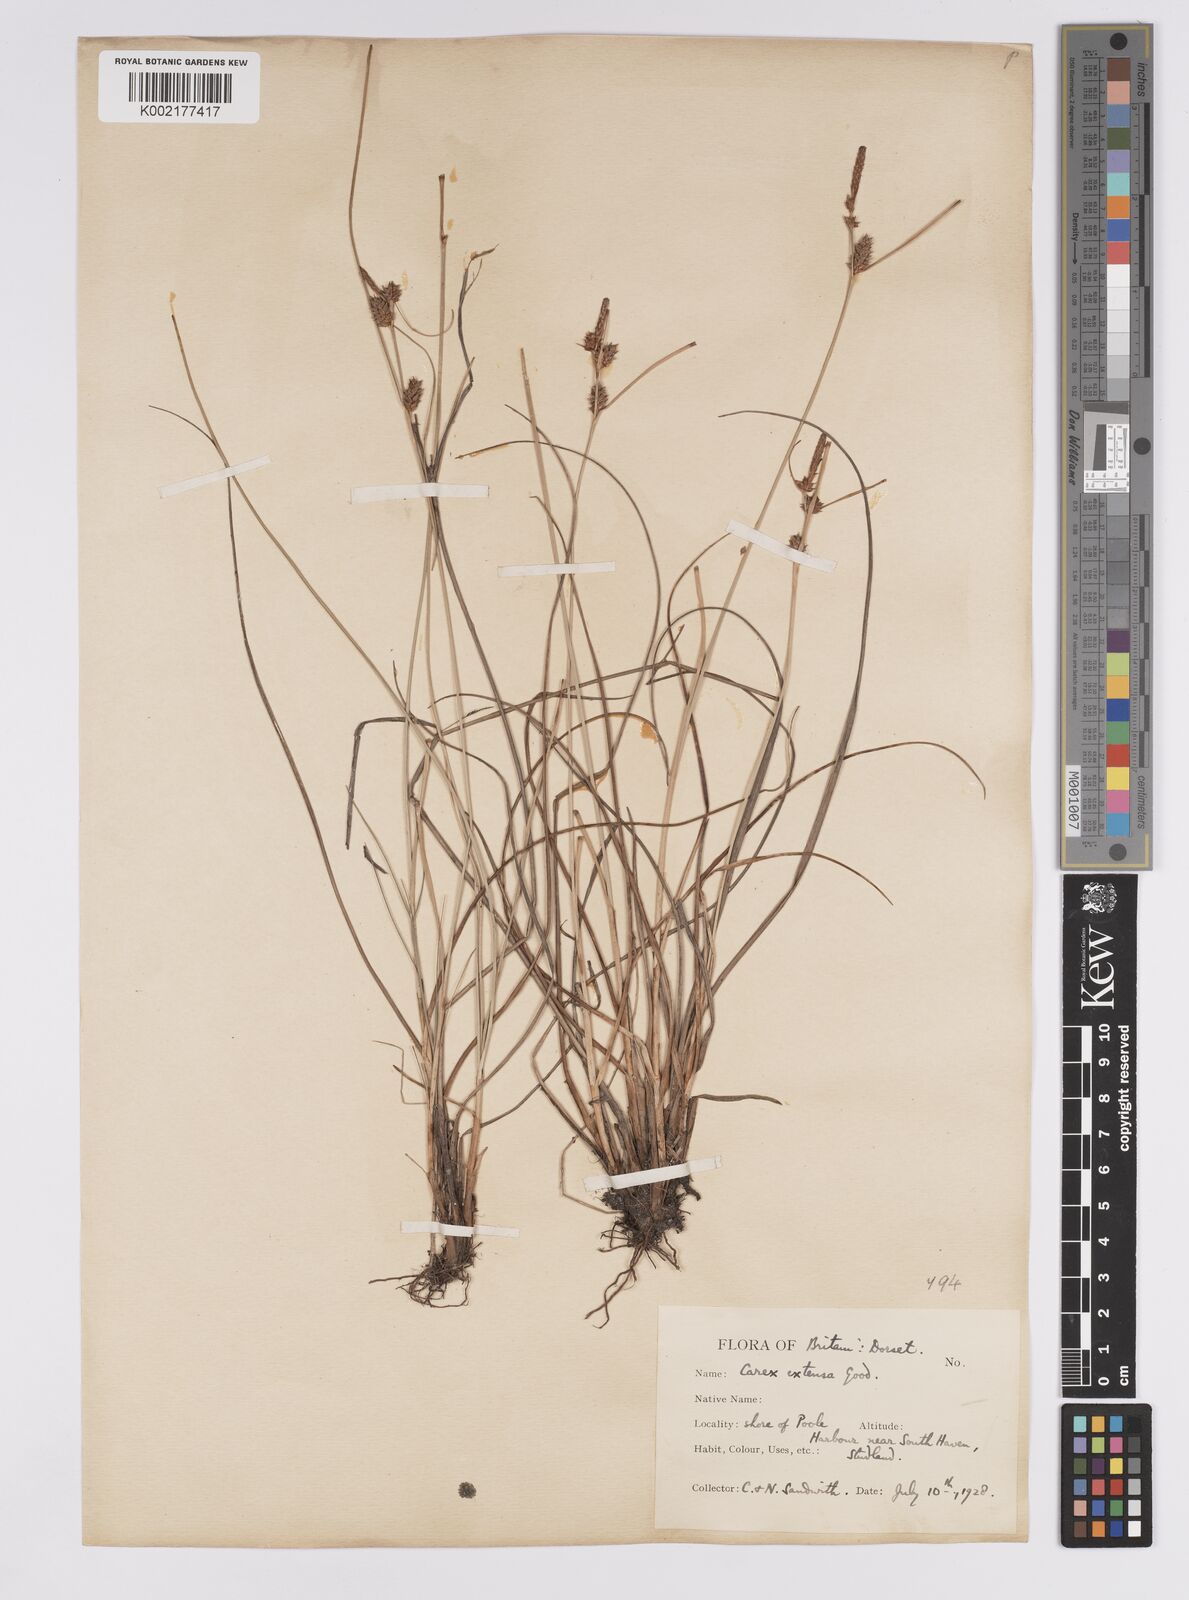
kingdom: Plantae
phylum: Tracheophyta
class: Liliopsida
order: Poales
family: Cyperaceae
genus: Carex
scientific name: Carex extensa
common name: Long-bracted sedge
